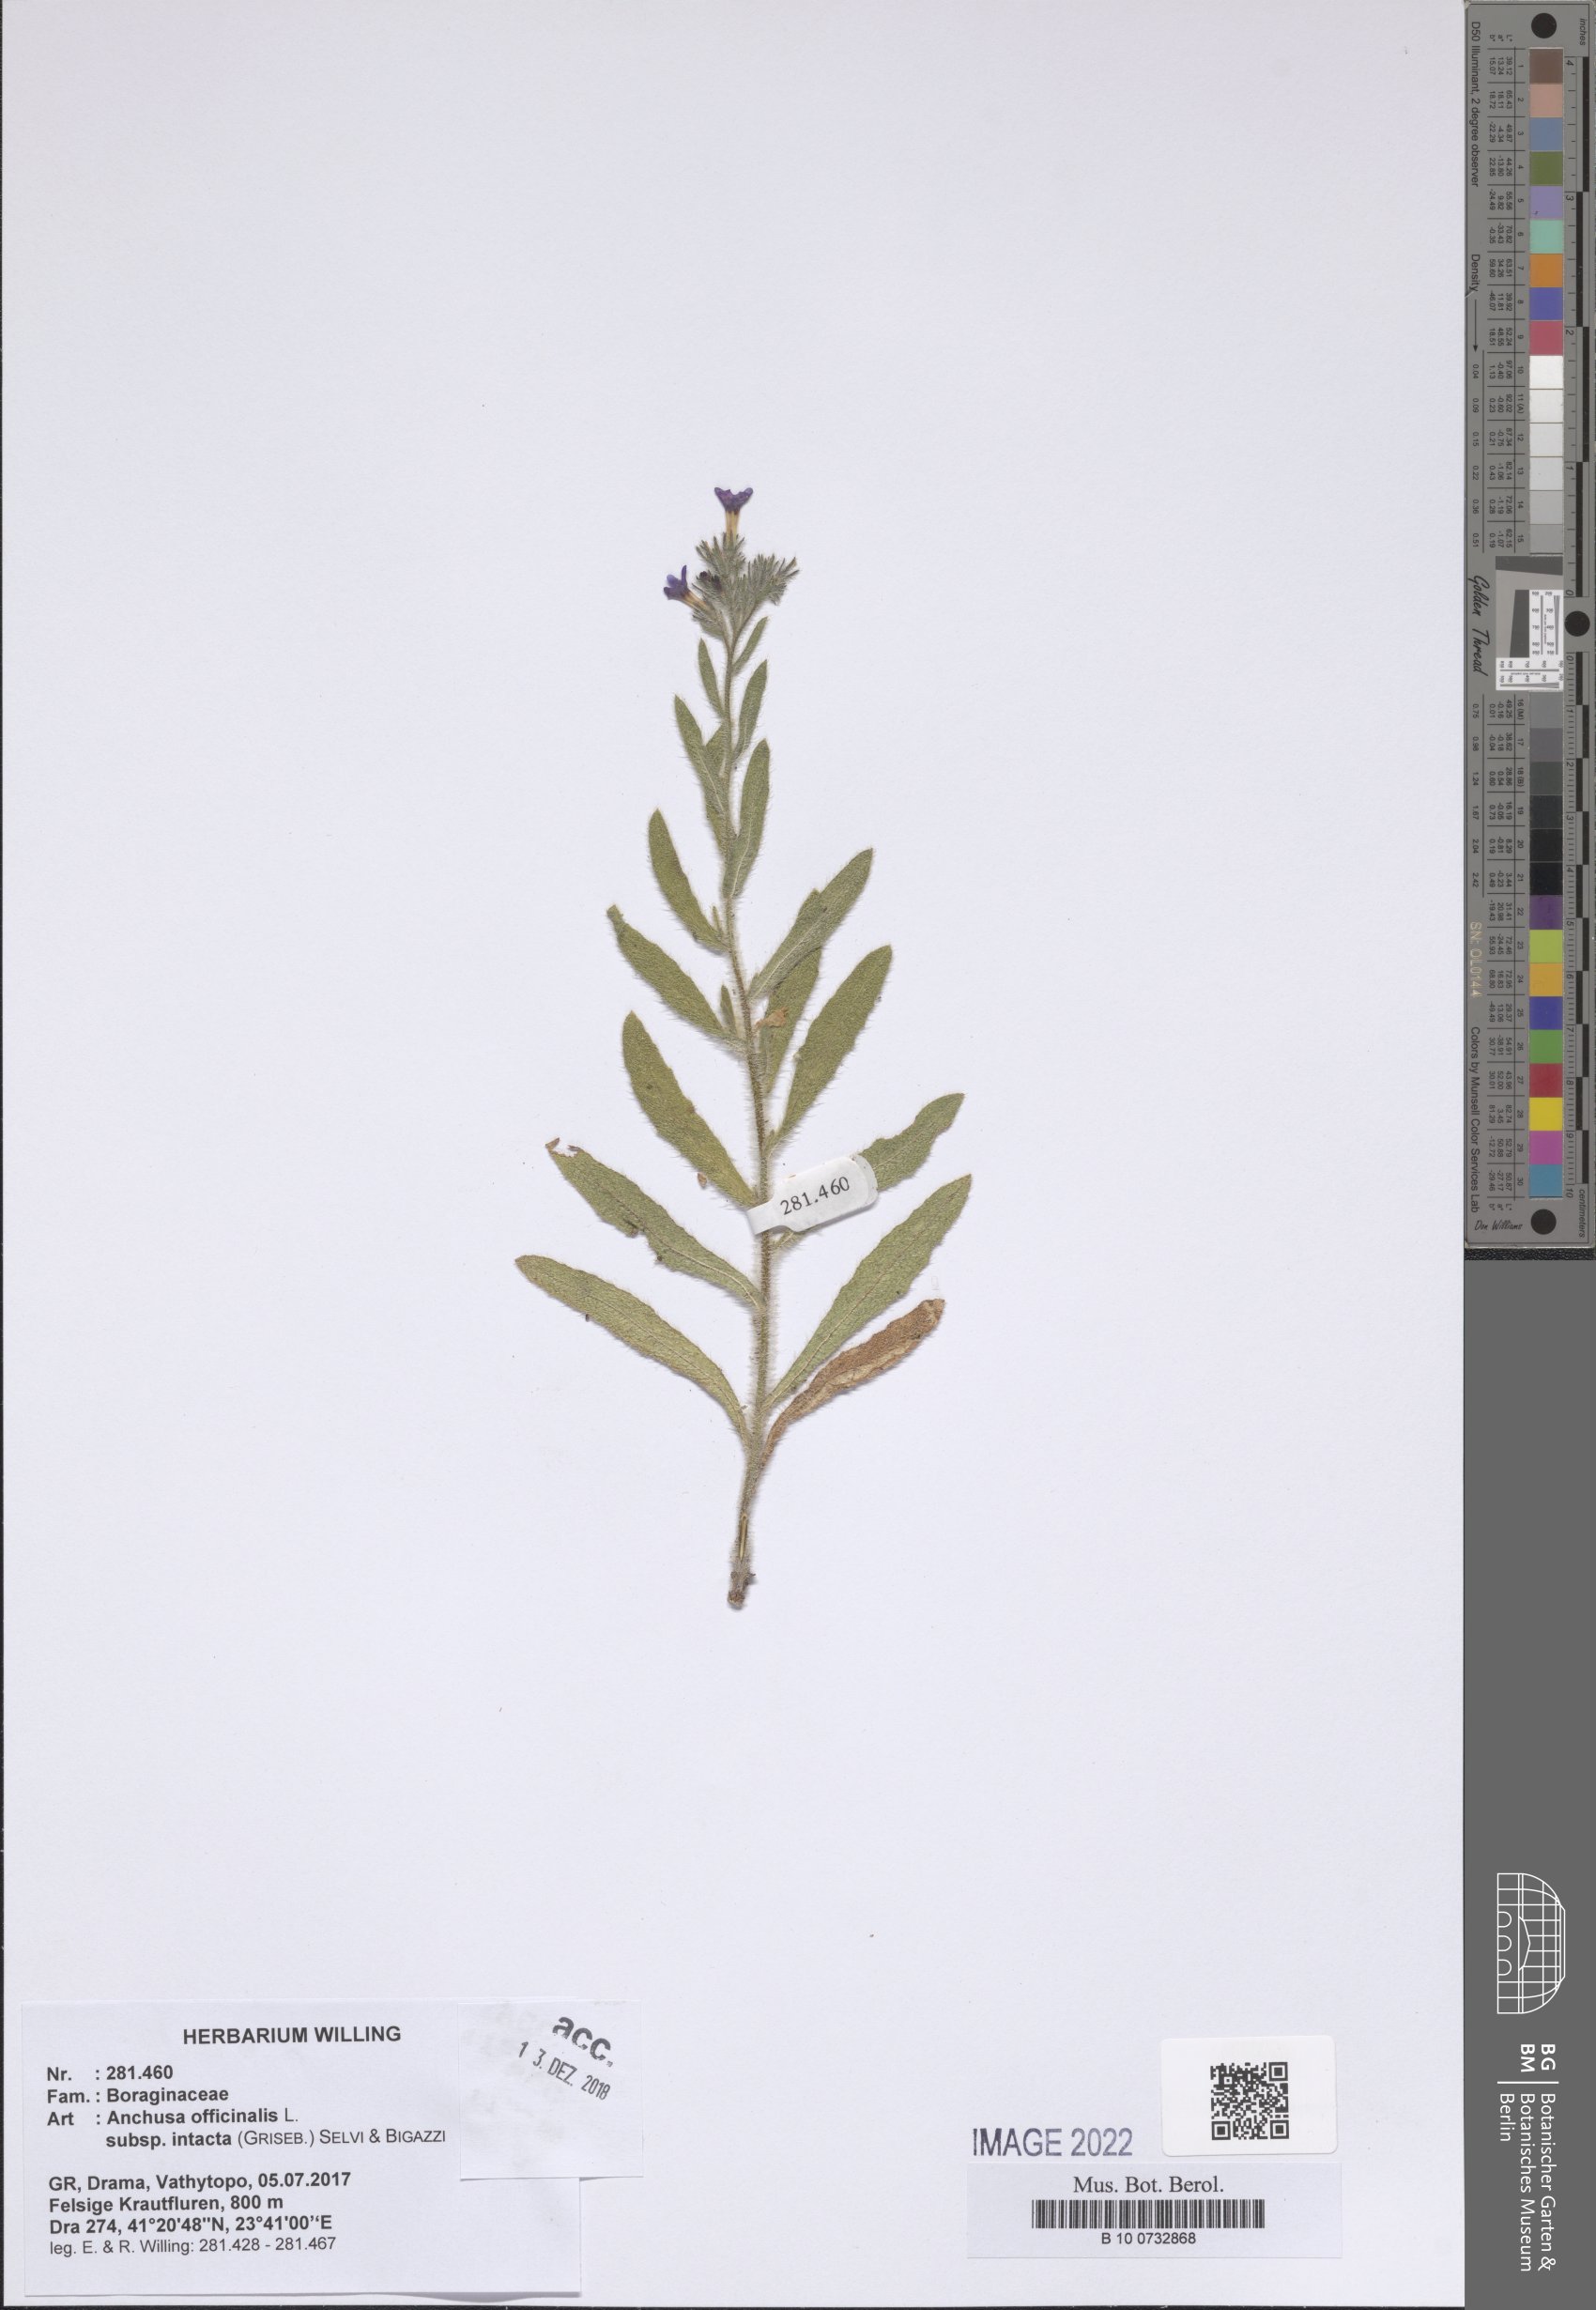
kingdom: Plantae
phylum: Tracheophyta
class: Magnoliopsida
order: Boraginales
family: Boraginaceae
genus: Anchusa
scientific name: Anchusa officinalis
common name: Alkanet
